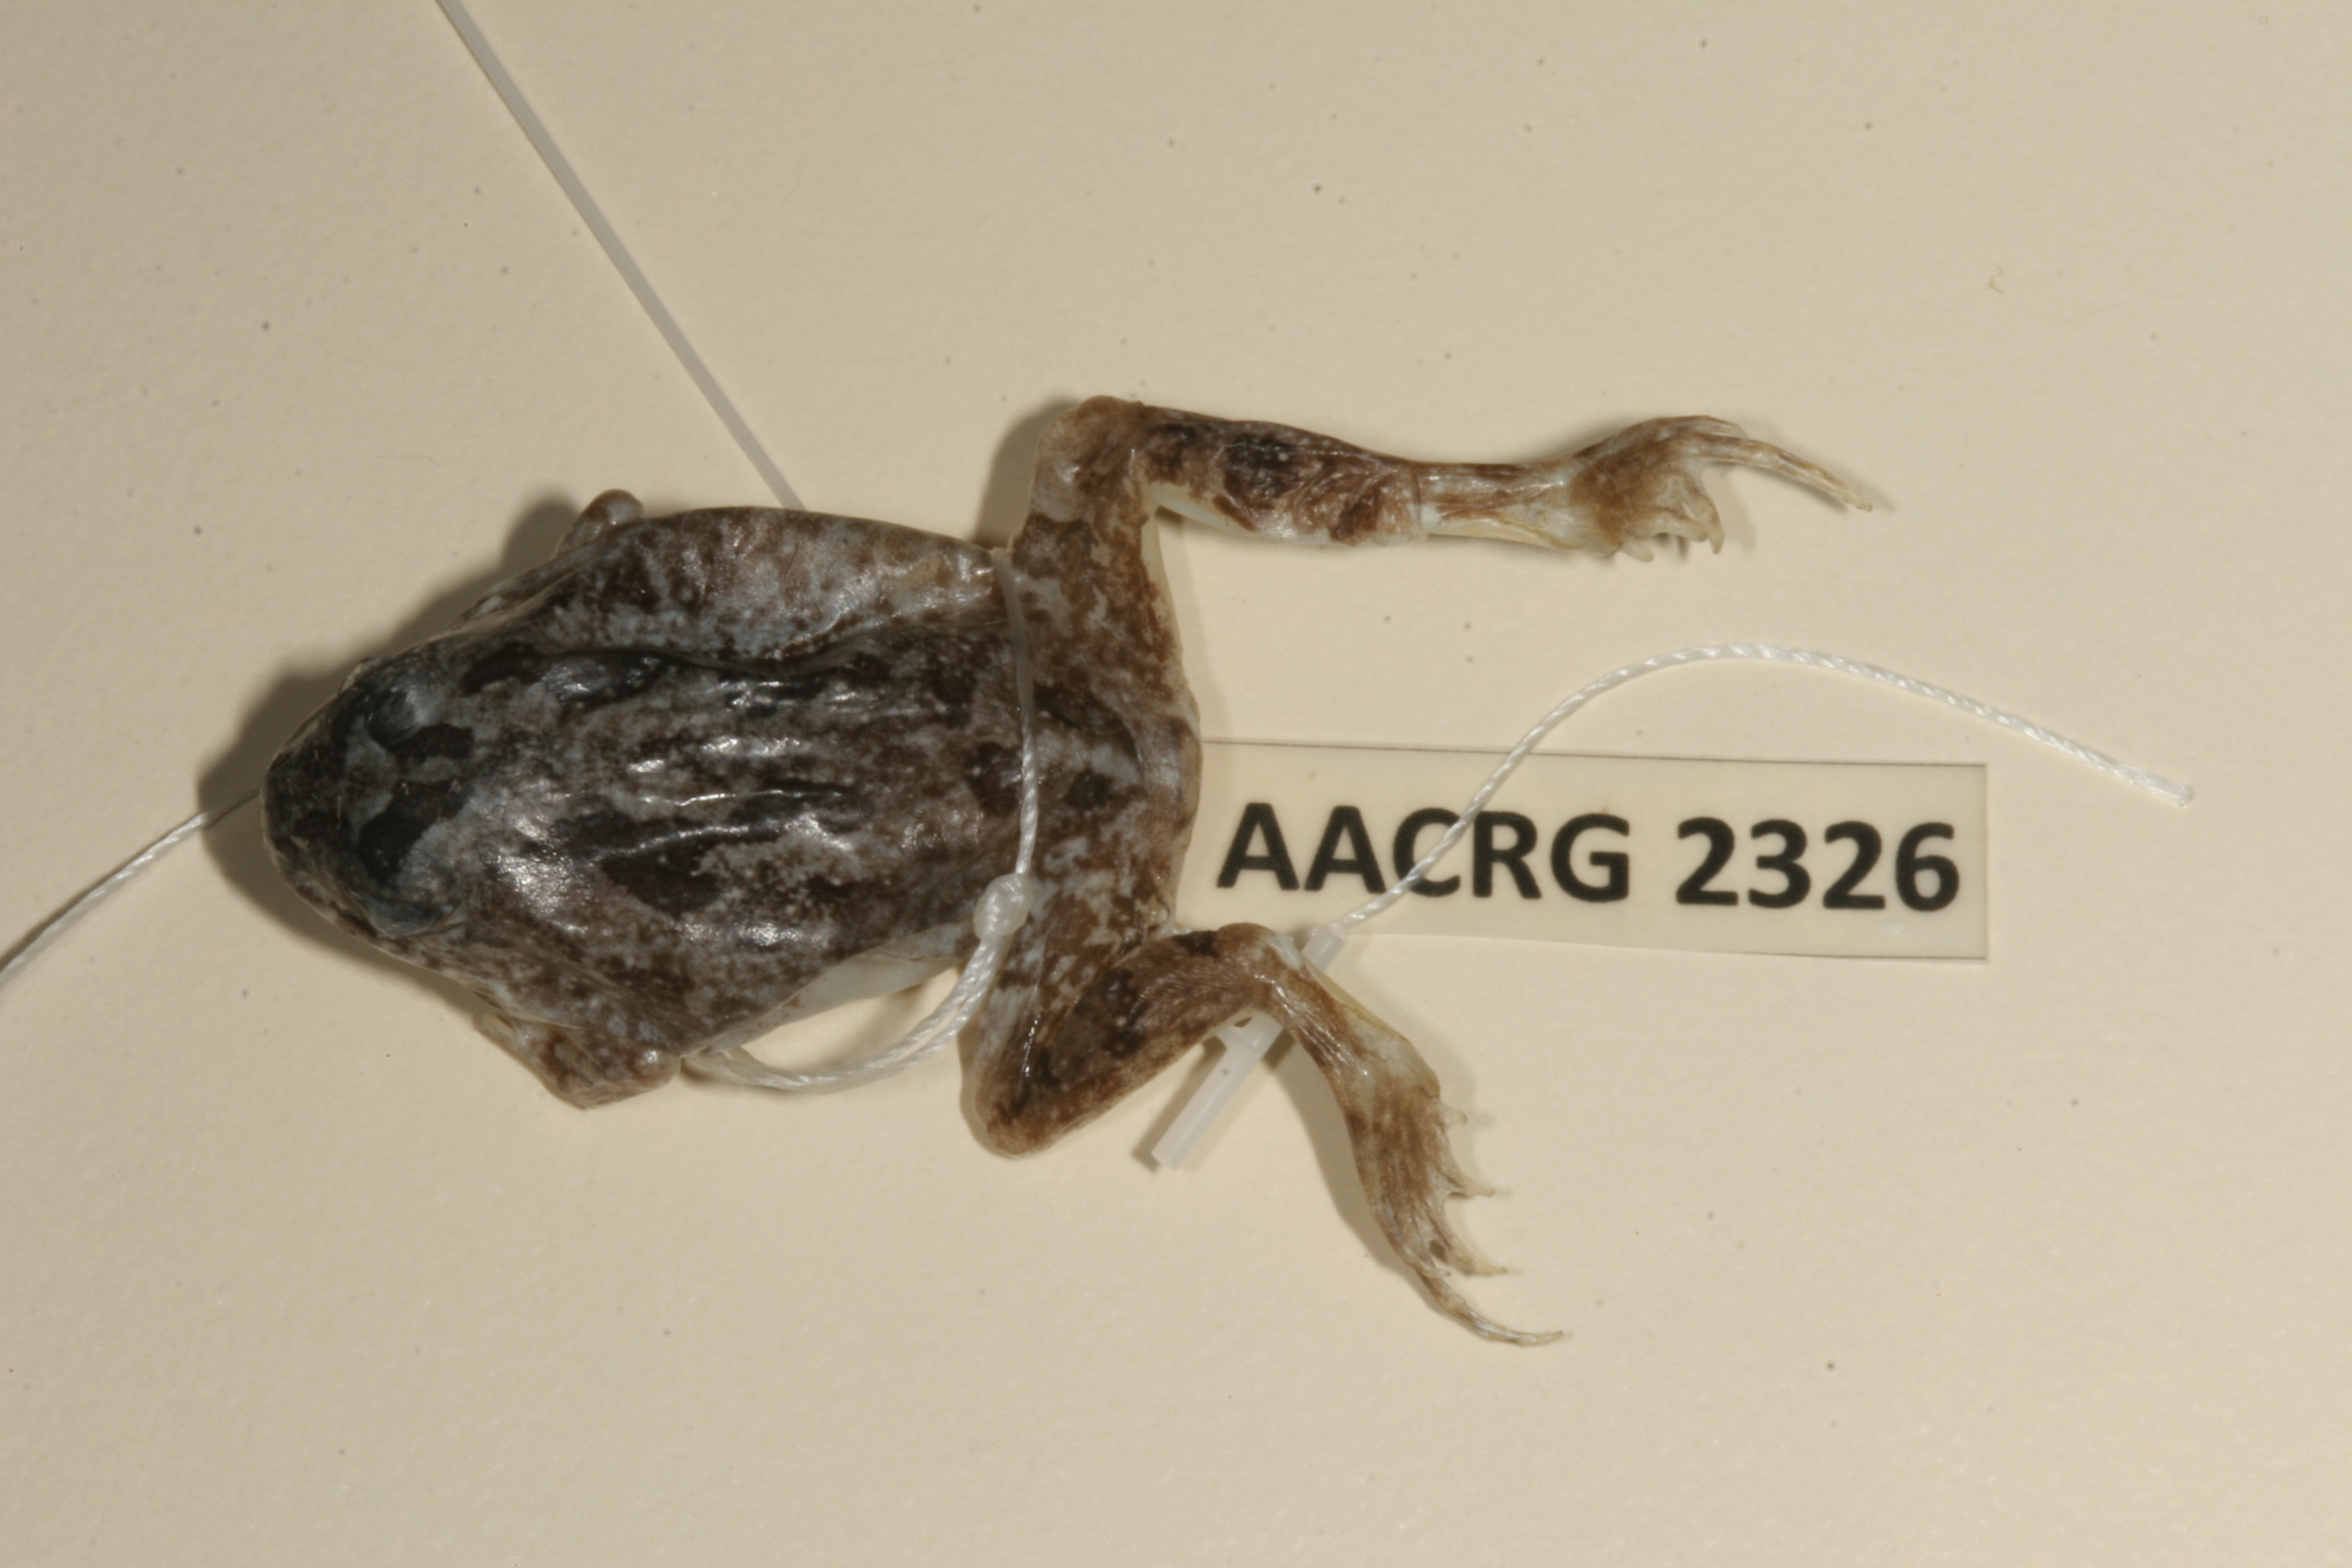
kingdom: Animalia
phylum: Chordata
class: Amphibia
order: Anura
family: Pyxicephalidae
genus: Tomopterna
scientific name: Tomopterna cryptotis
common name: Catequero bullfrog
